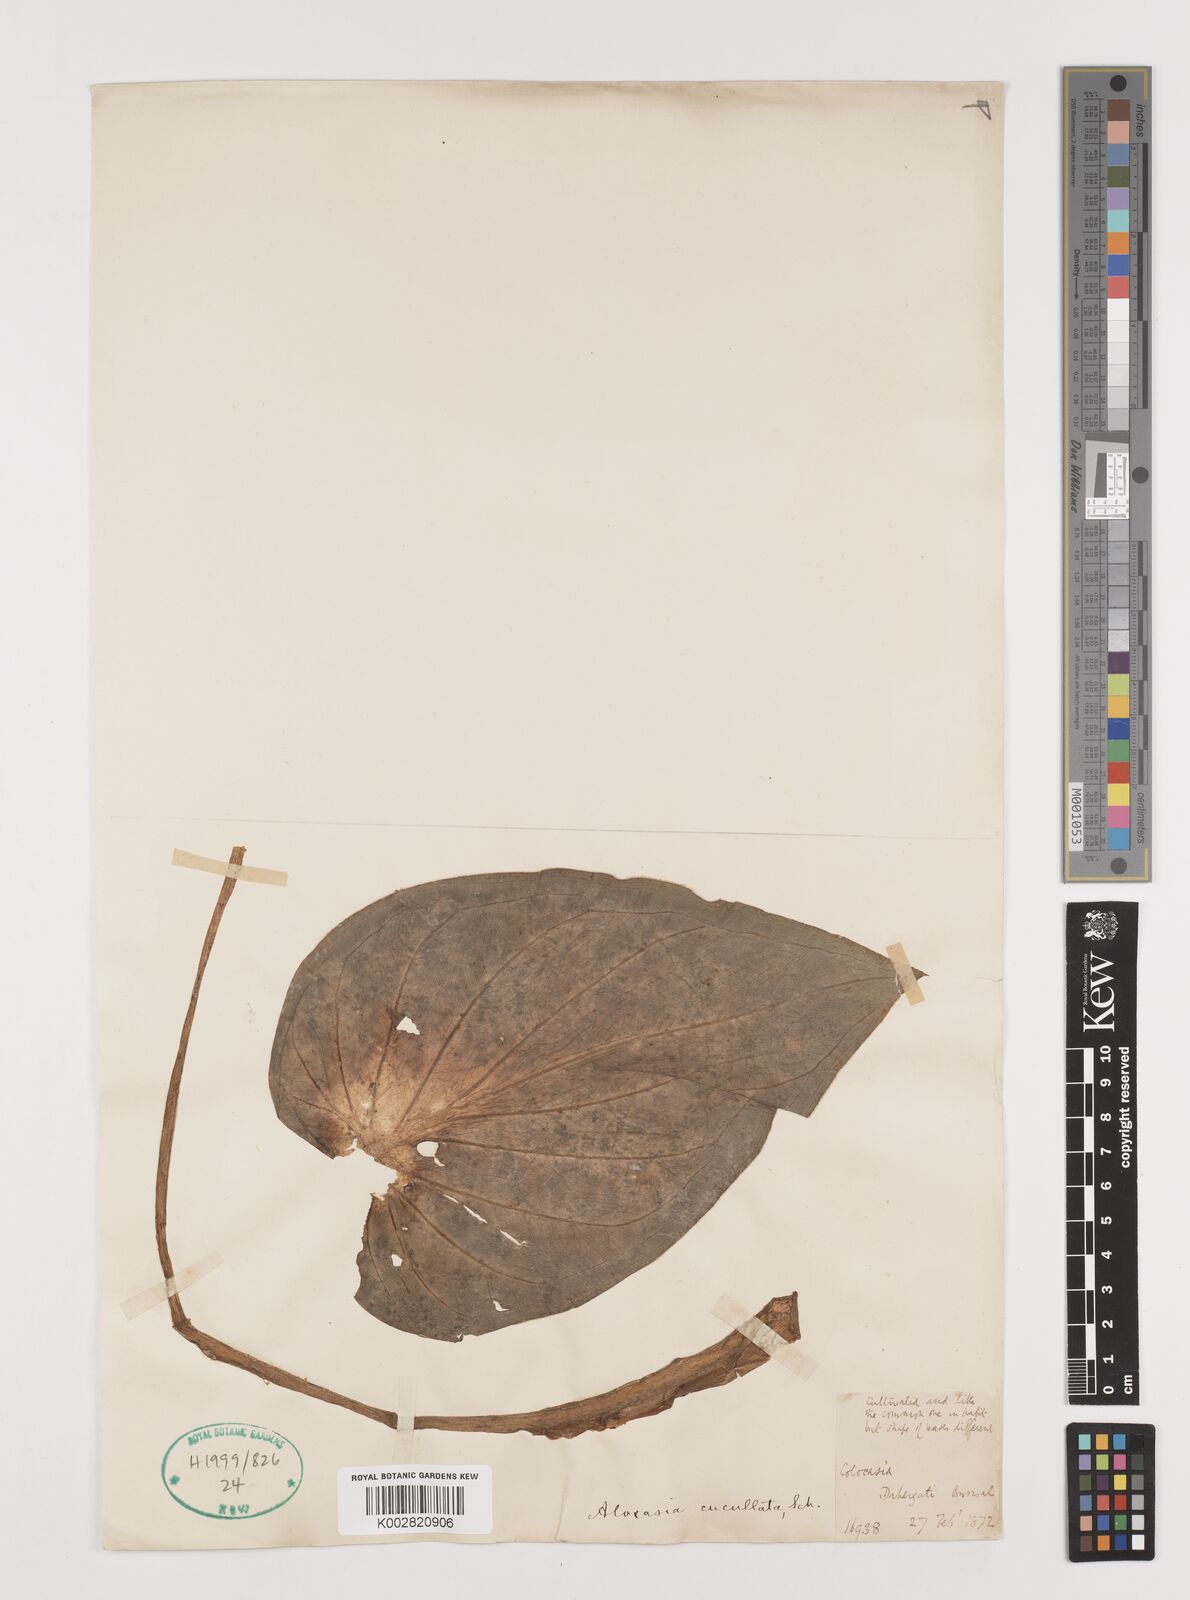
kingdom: Plantae
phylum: Tracheophyta
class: Liliopsida
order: Alismatales
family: Araceae
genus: Alocasia
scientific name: Alocasia cucullata
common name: Buddha's hand
